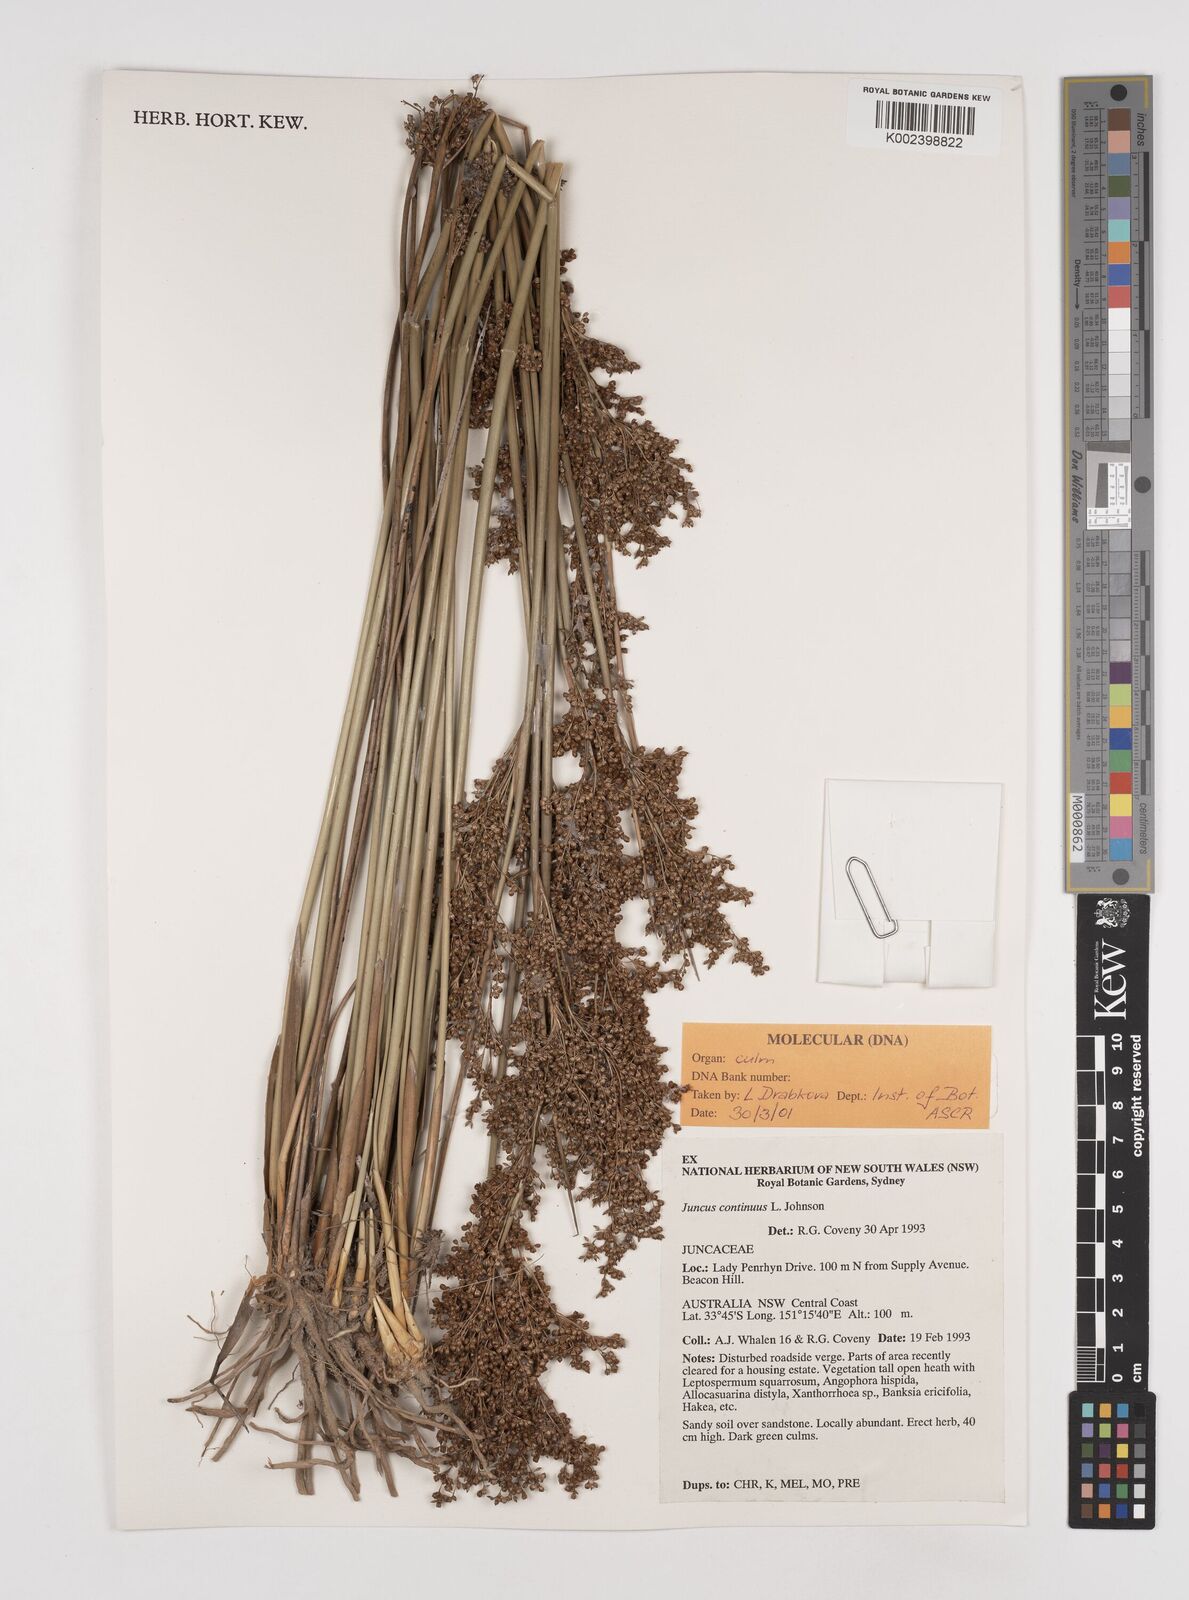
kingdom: Plantae
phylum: Tracheophyta
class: Liliopsida
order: Poales
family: Juncaceae
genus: Juncus
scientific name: Juncus continuus
